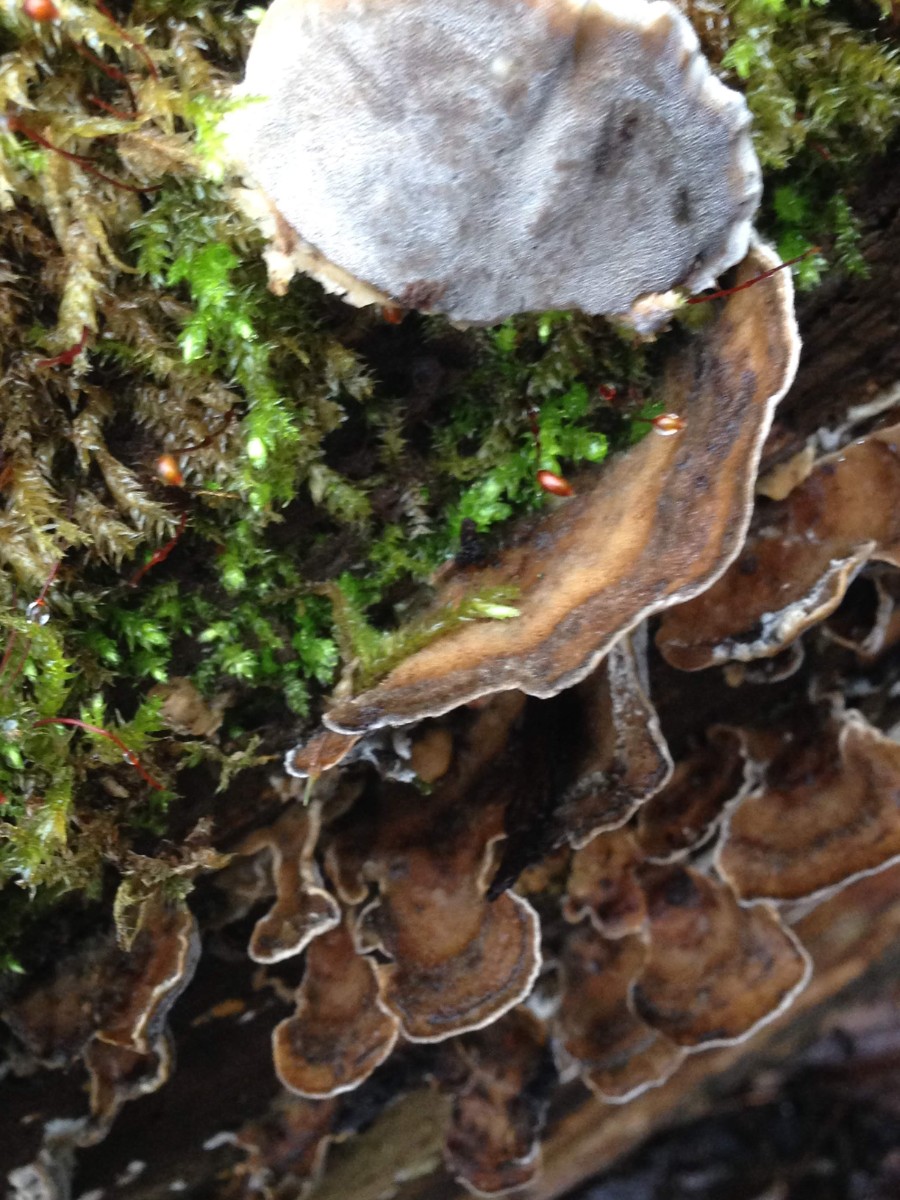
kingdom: Fungi
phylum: Basidiomycota
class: Agaricomycetes
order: Polyporales
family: Phanerochaetaceae
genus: Bjerkandera
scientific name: Bjerkandera adusta
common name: sveden sodporesvamp
